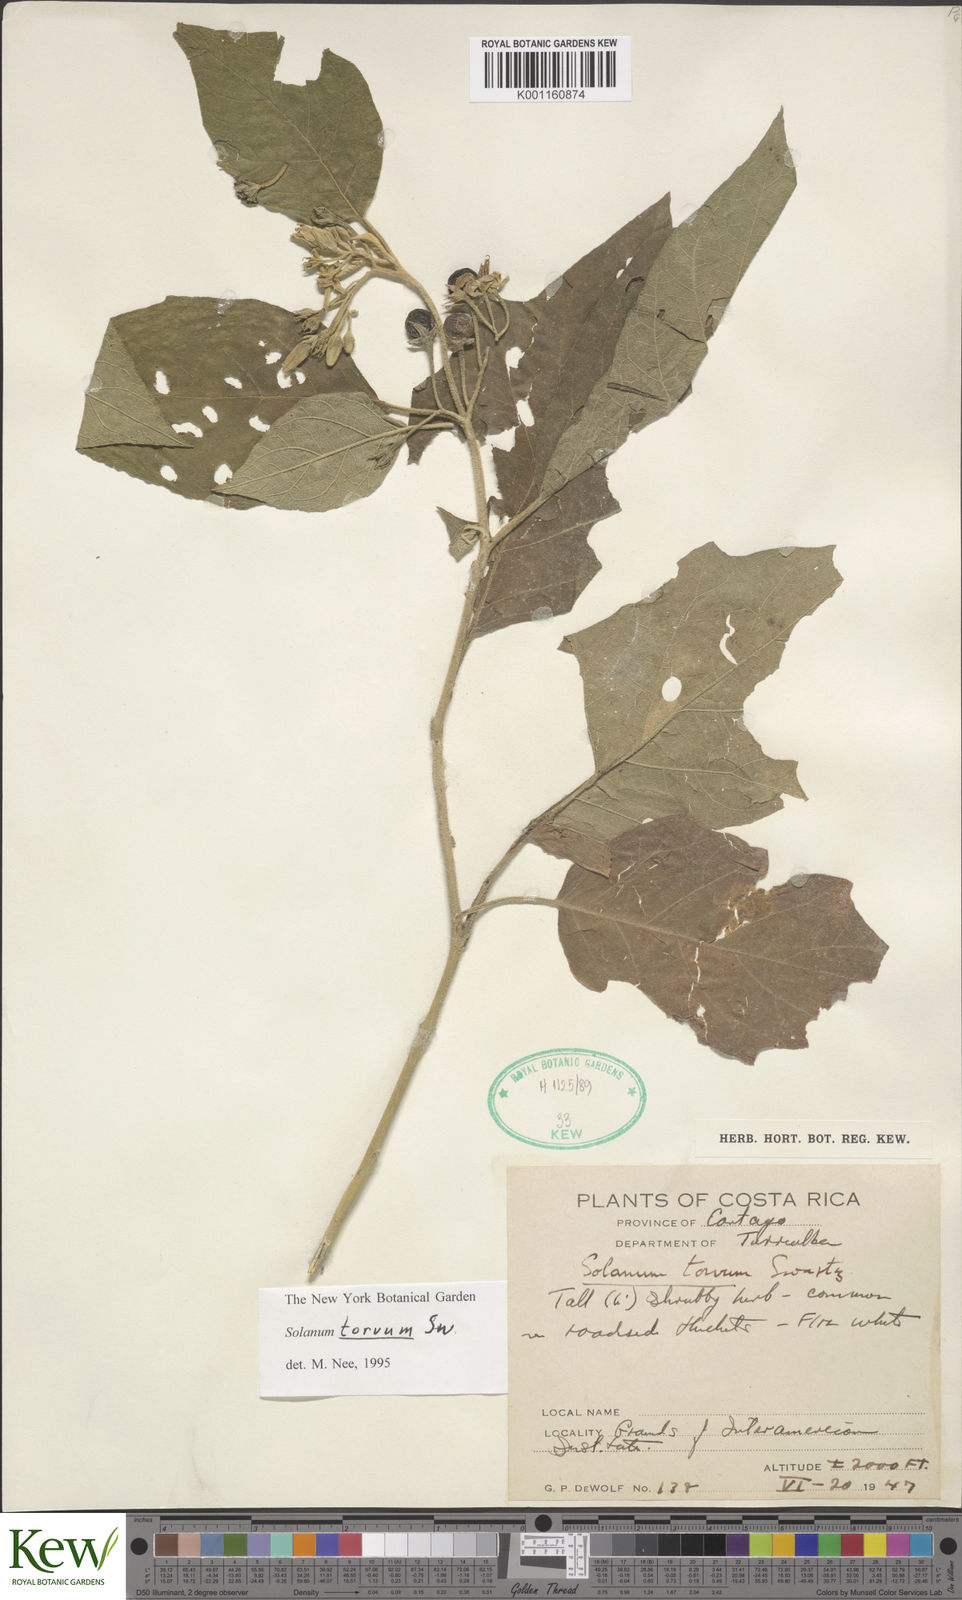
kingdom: Plantae
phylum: Tracheophyta
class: Magnoliopsida
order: Solanales
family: Solanaceae
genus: Solanum
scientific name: Solanum torvum
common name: Turkey berry
